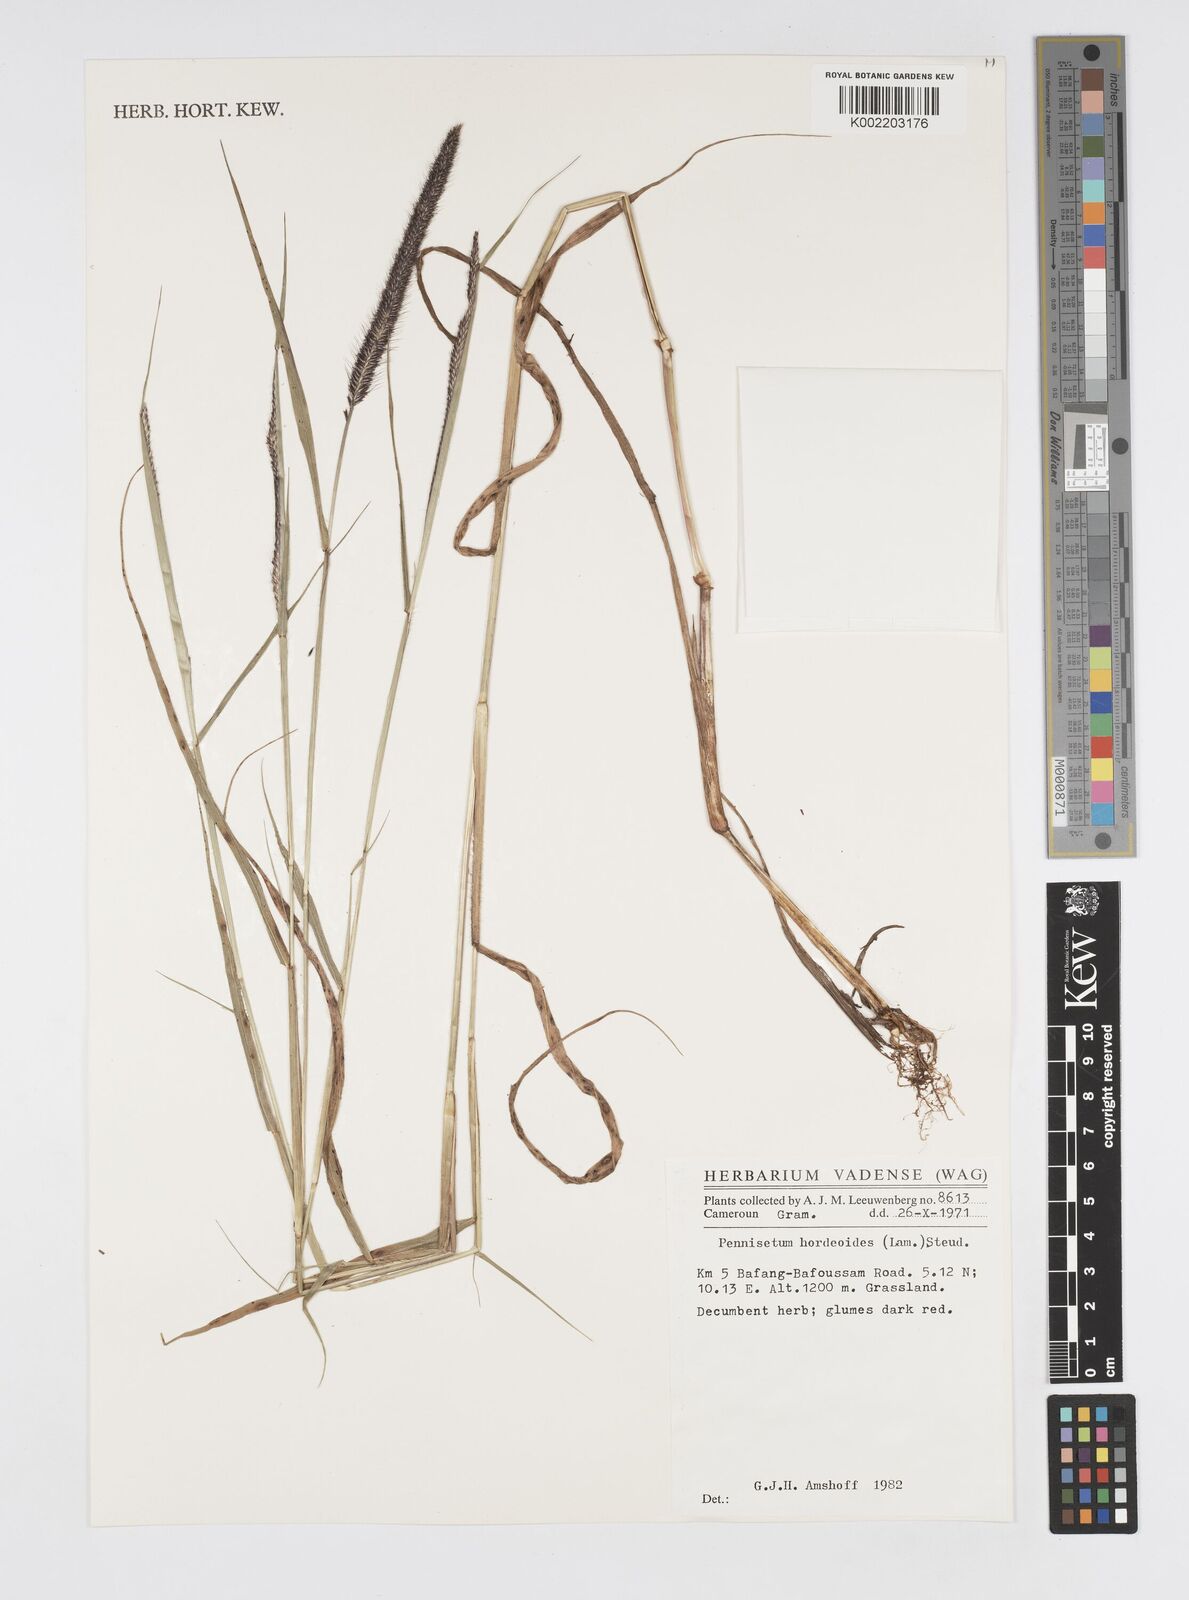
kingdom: Plantae
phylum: Tracheophyta
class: Liliopsida
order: Poales
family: Poaceae
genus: Cenchrus
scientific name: Cenchrus hordeoides
